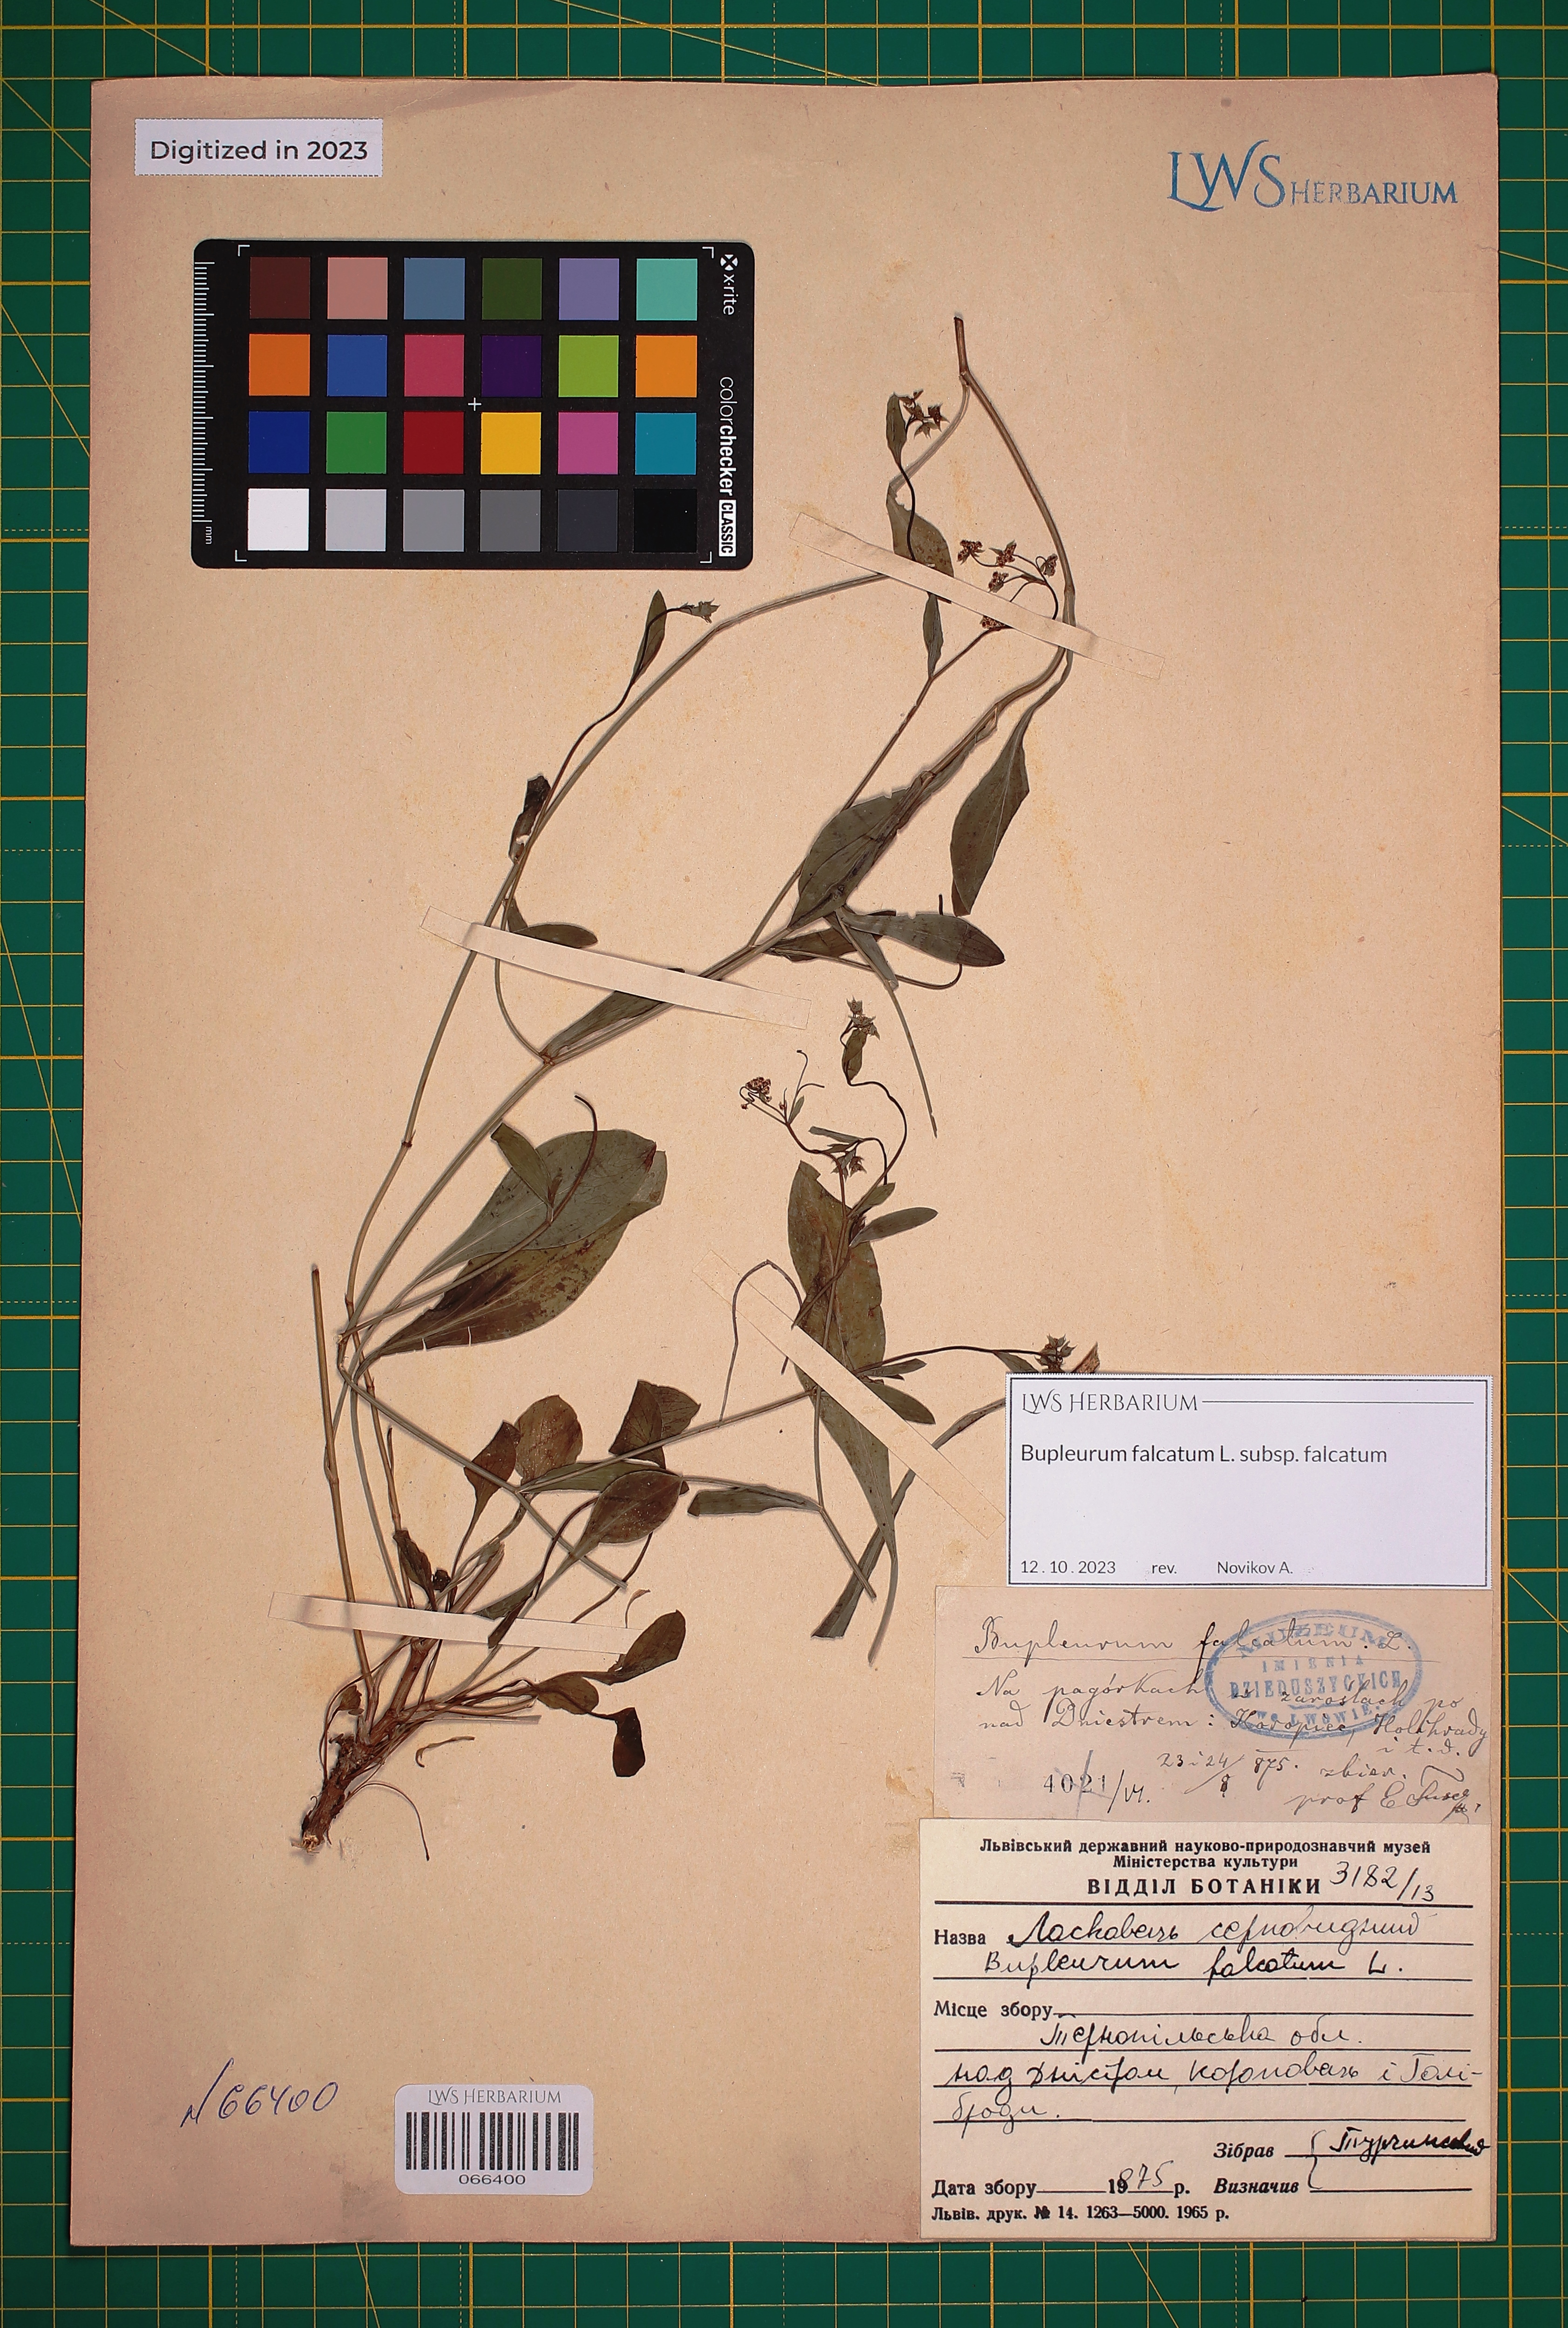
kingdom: Plantae
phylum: Tracheophyta
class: Magnoliopsida
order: Apiales
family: Apiaceae
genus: Bupleurum
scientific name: Bupleurum falcatum
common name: Sickle-leaved hare's-ear
